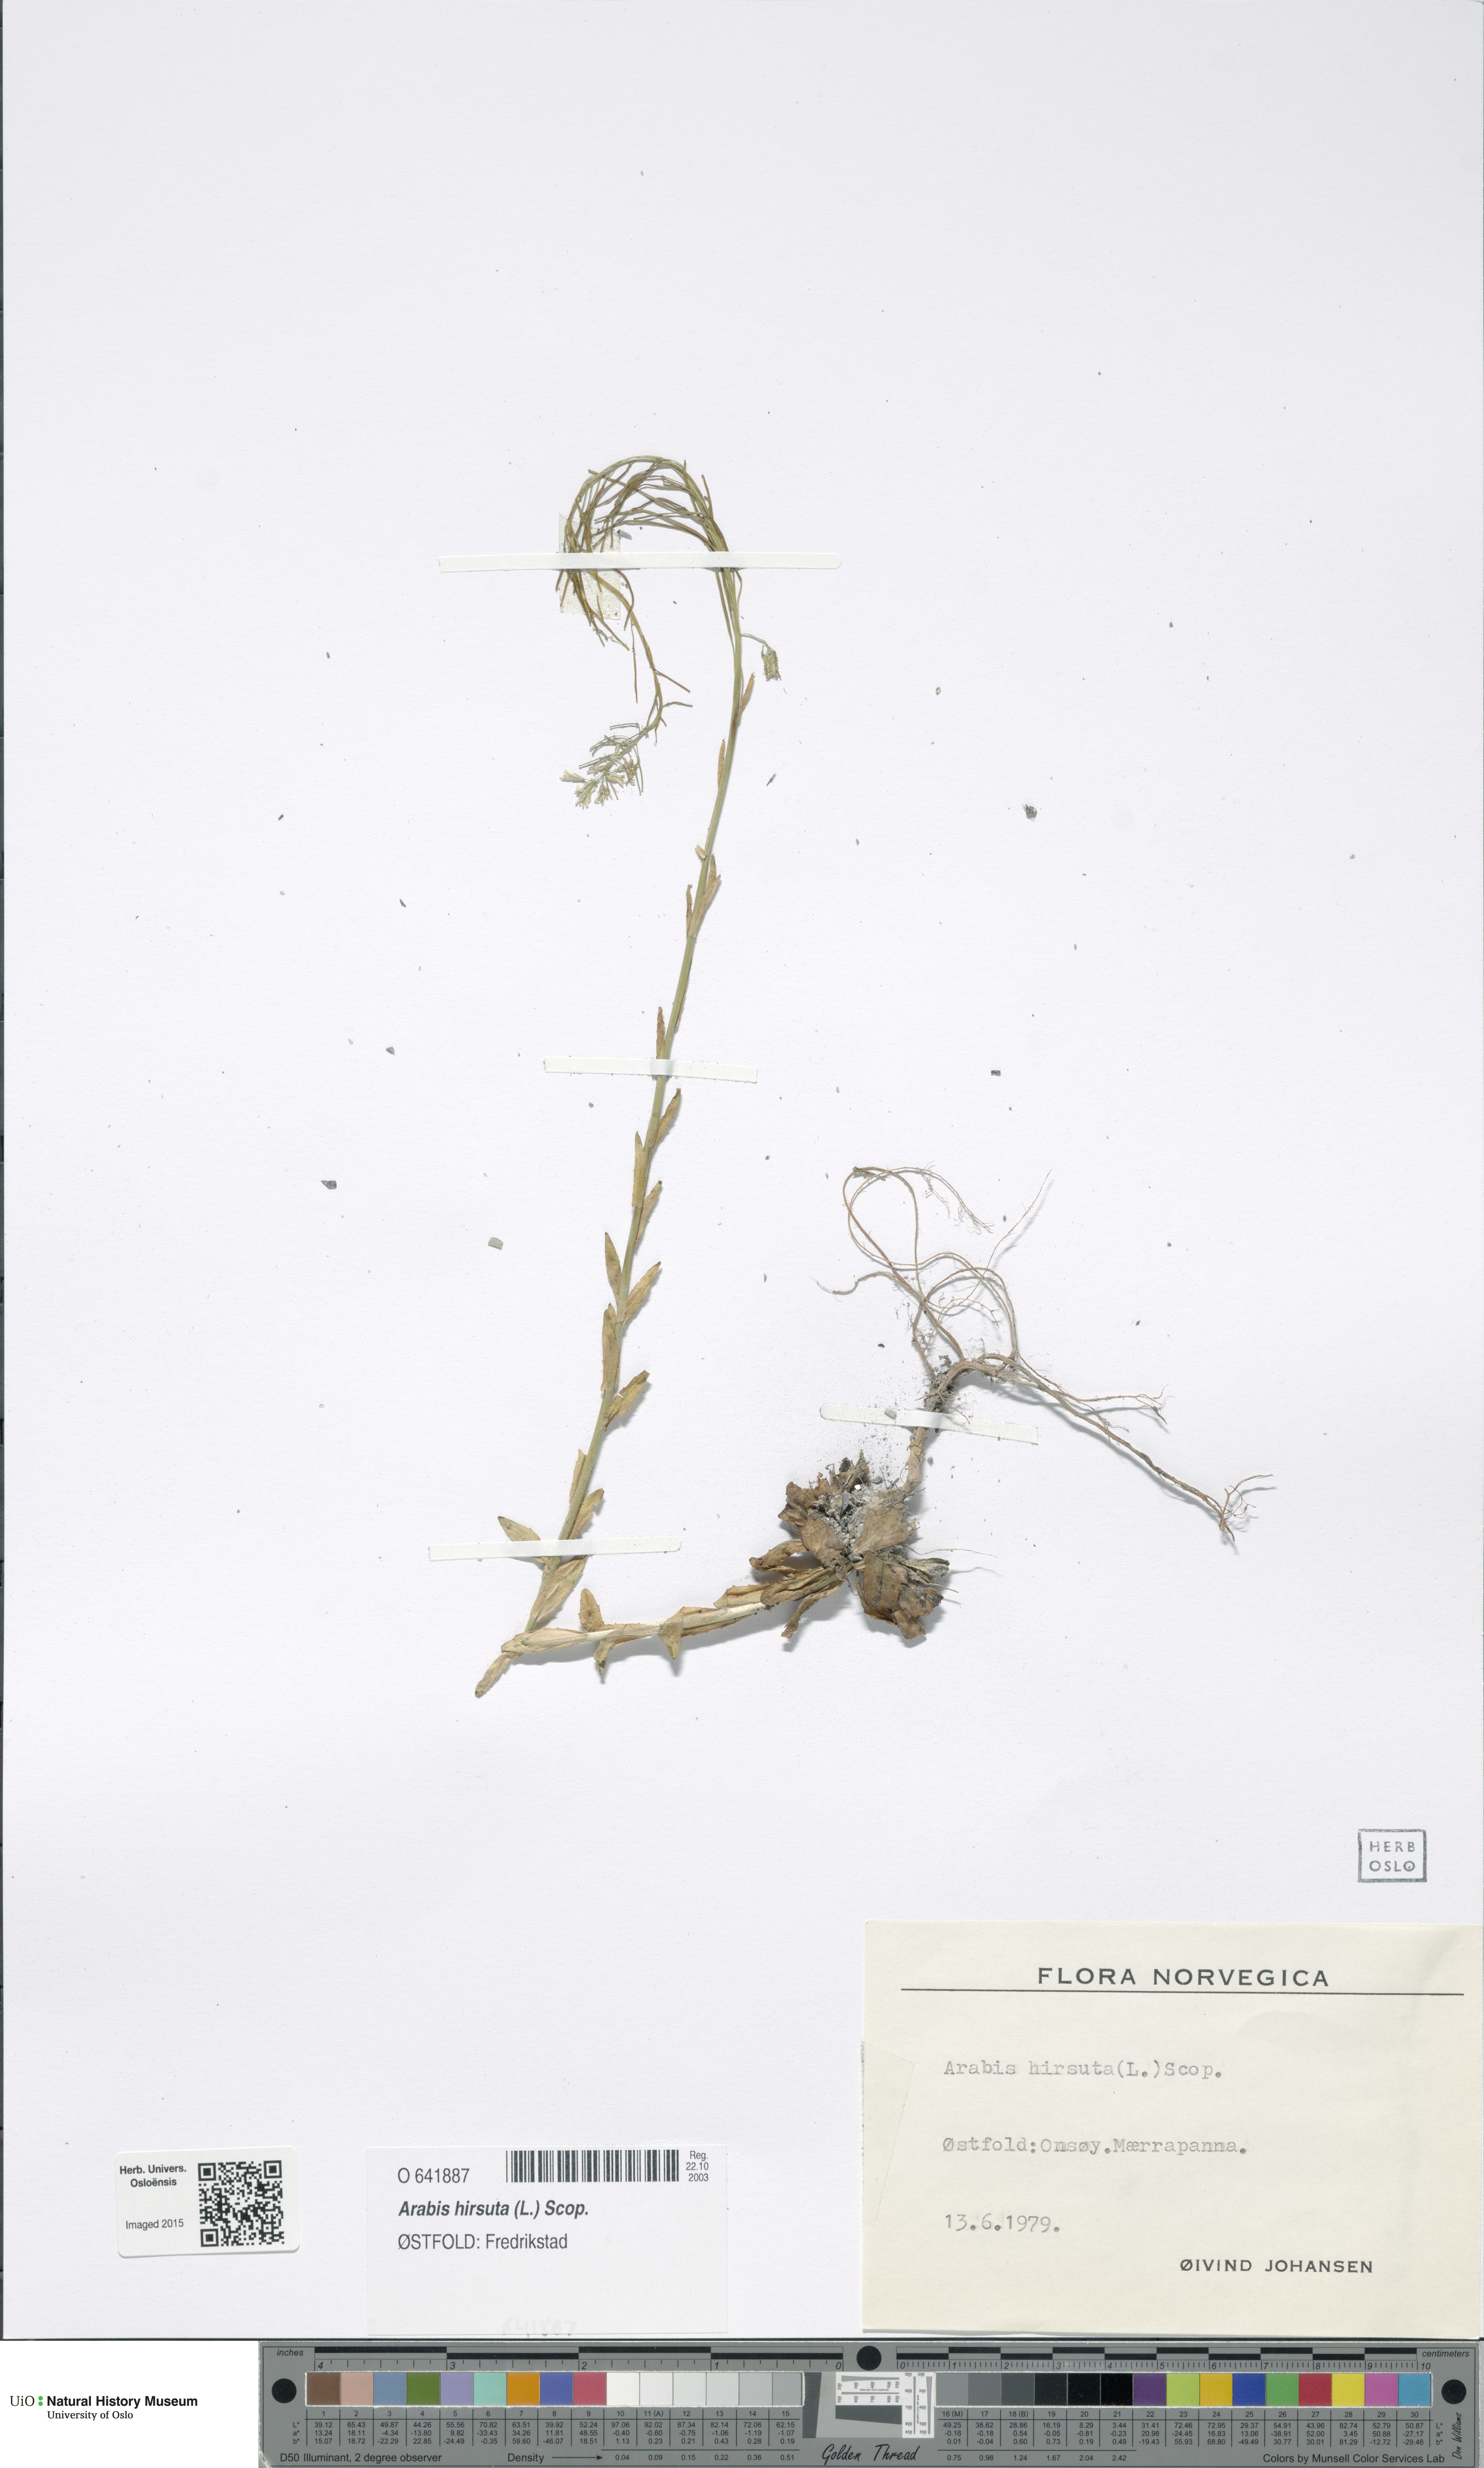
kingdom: Plantae
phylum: Tracheophyta
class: Magnoliopsida
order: Brassicales
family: Brassicaceae
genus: Arabis
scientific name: Arabis hirsuta
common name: Hairy rock-cress
